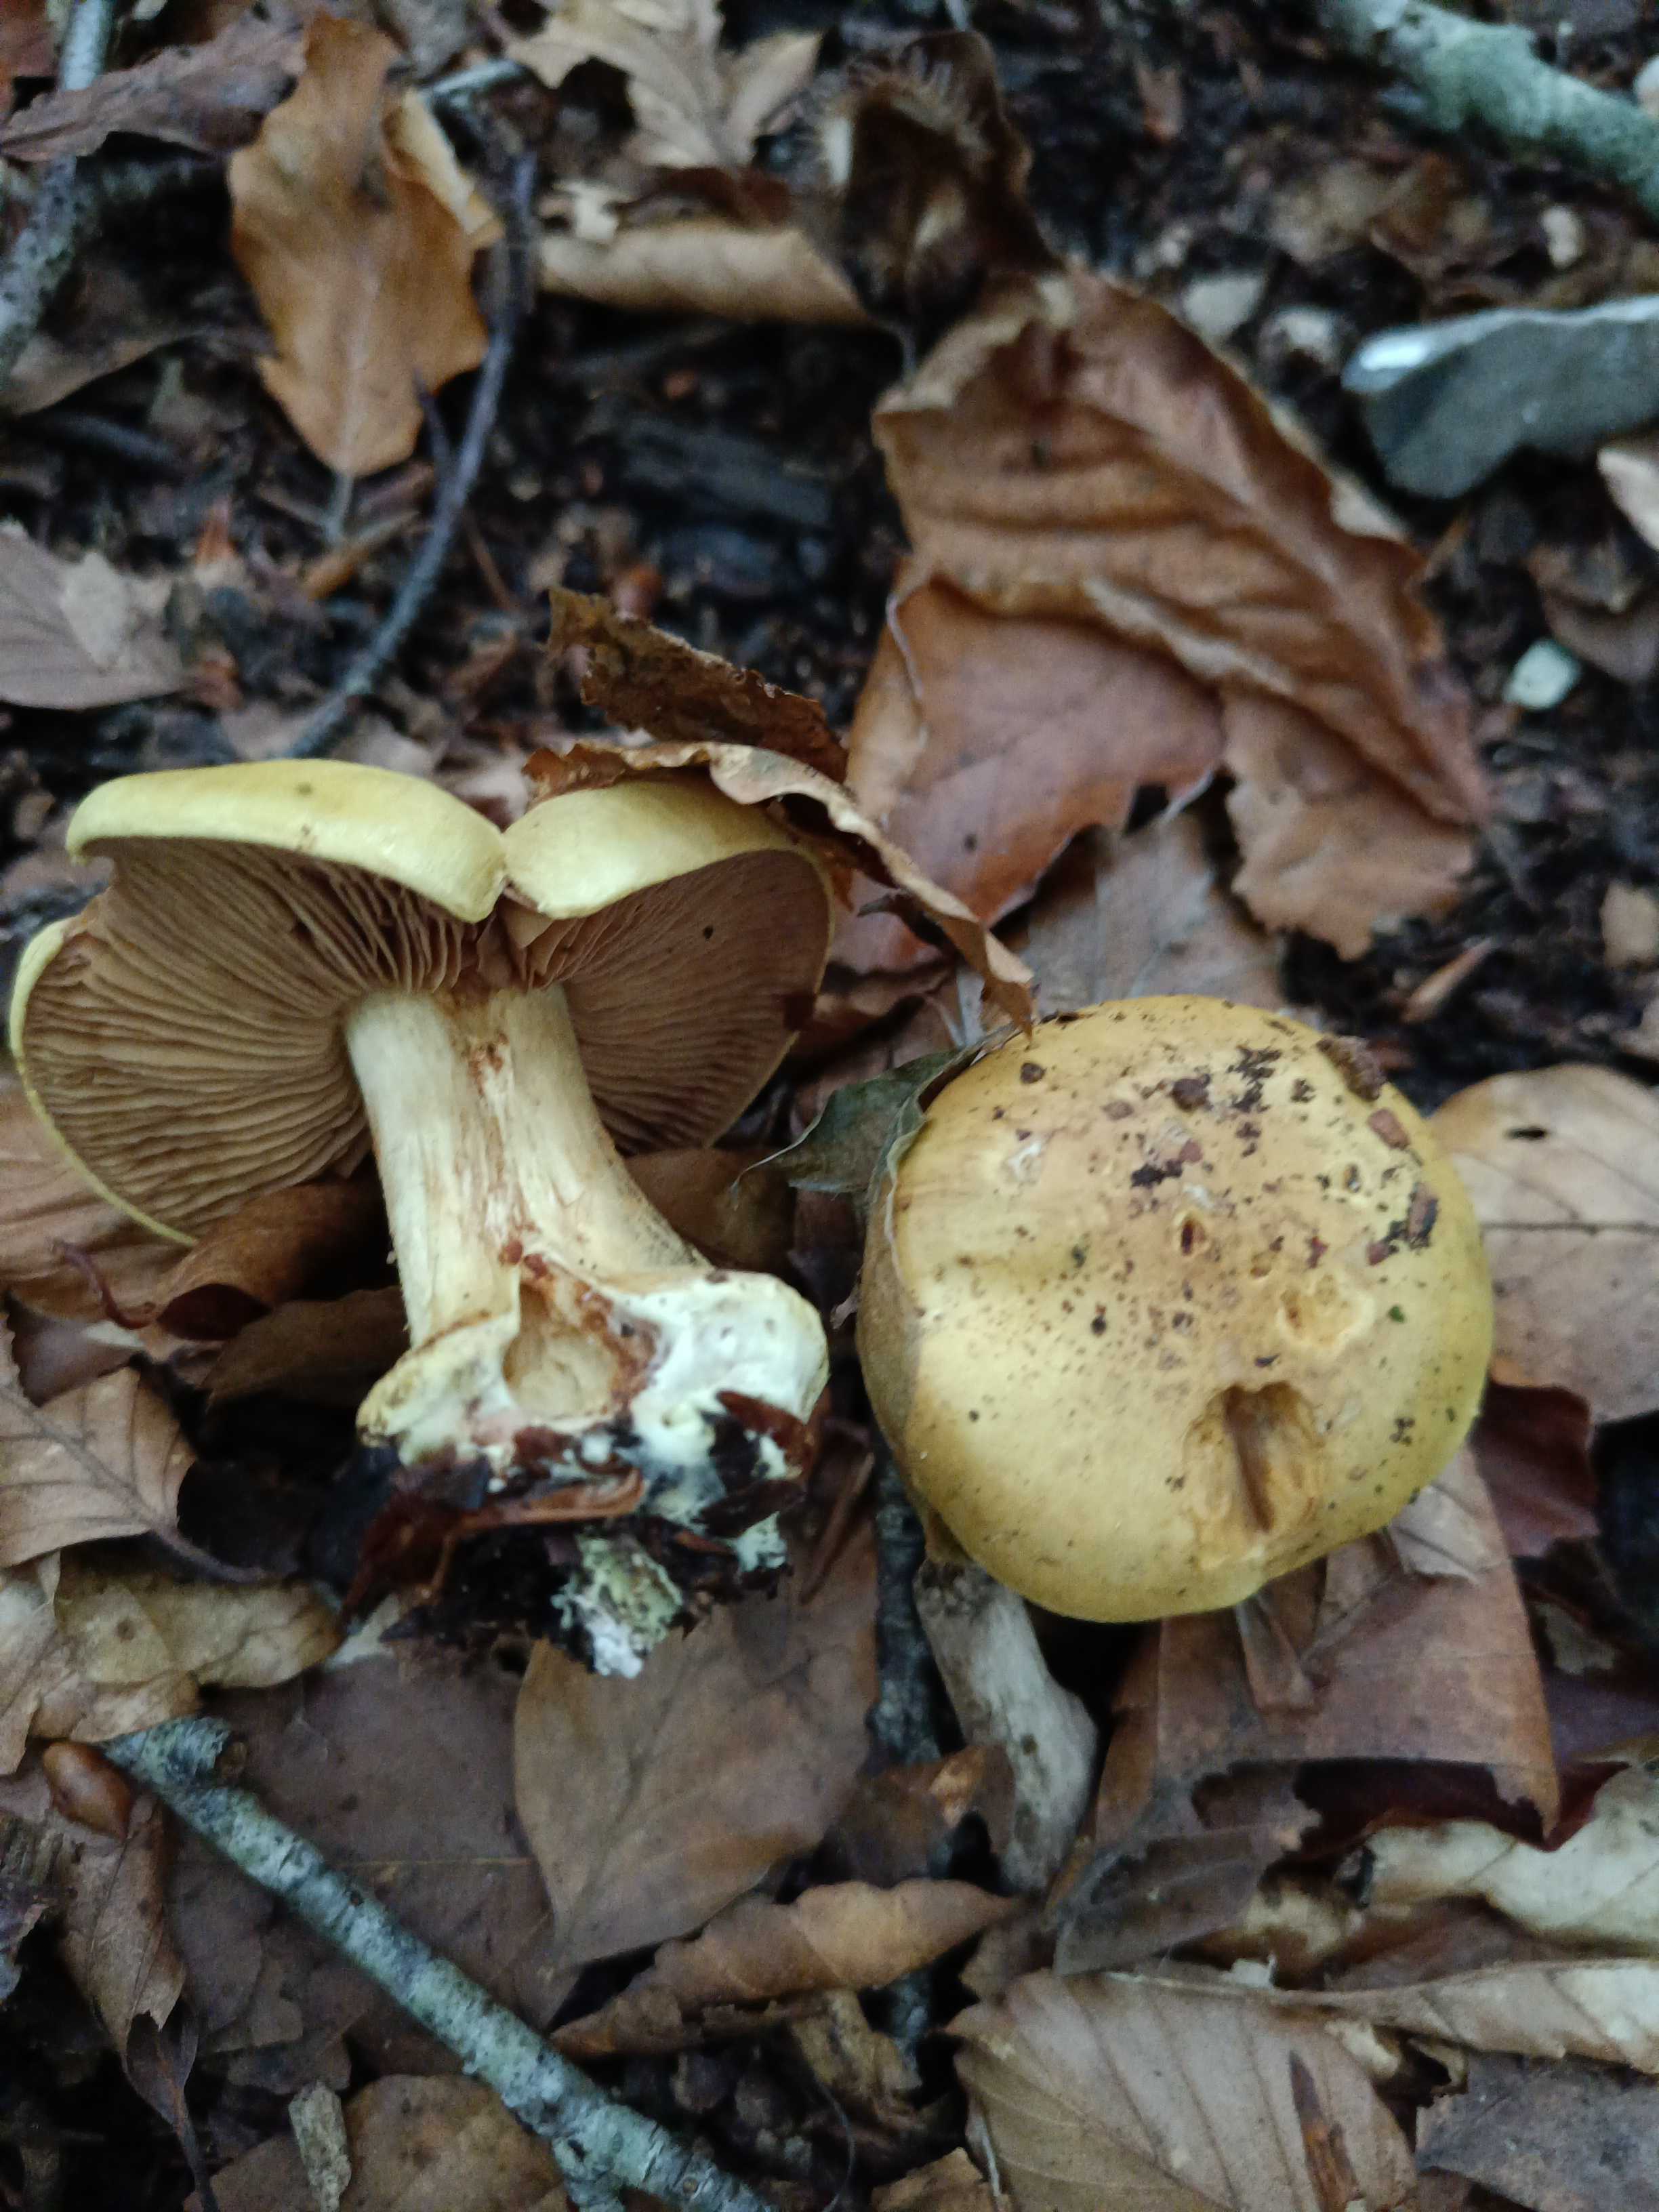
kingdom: Fungi
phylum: Basidiomycota
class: Agaricomycetes
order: Agaricales
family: Cortinariaceae
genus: Calonarius
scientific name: Calonarius fulvocitrinus
